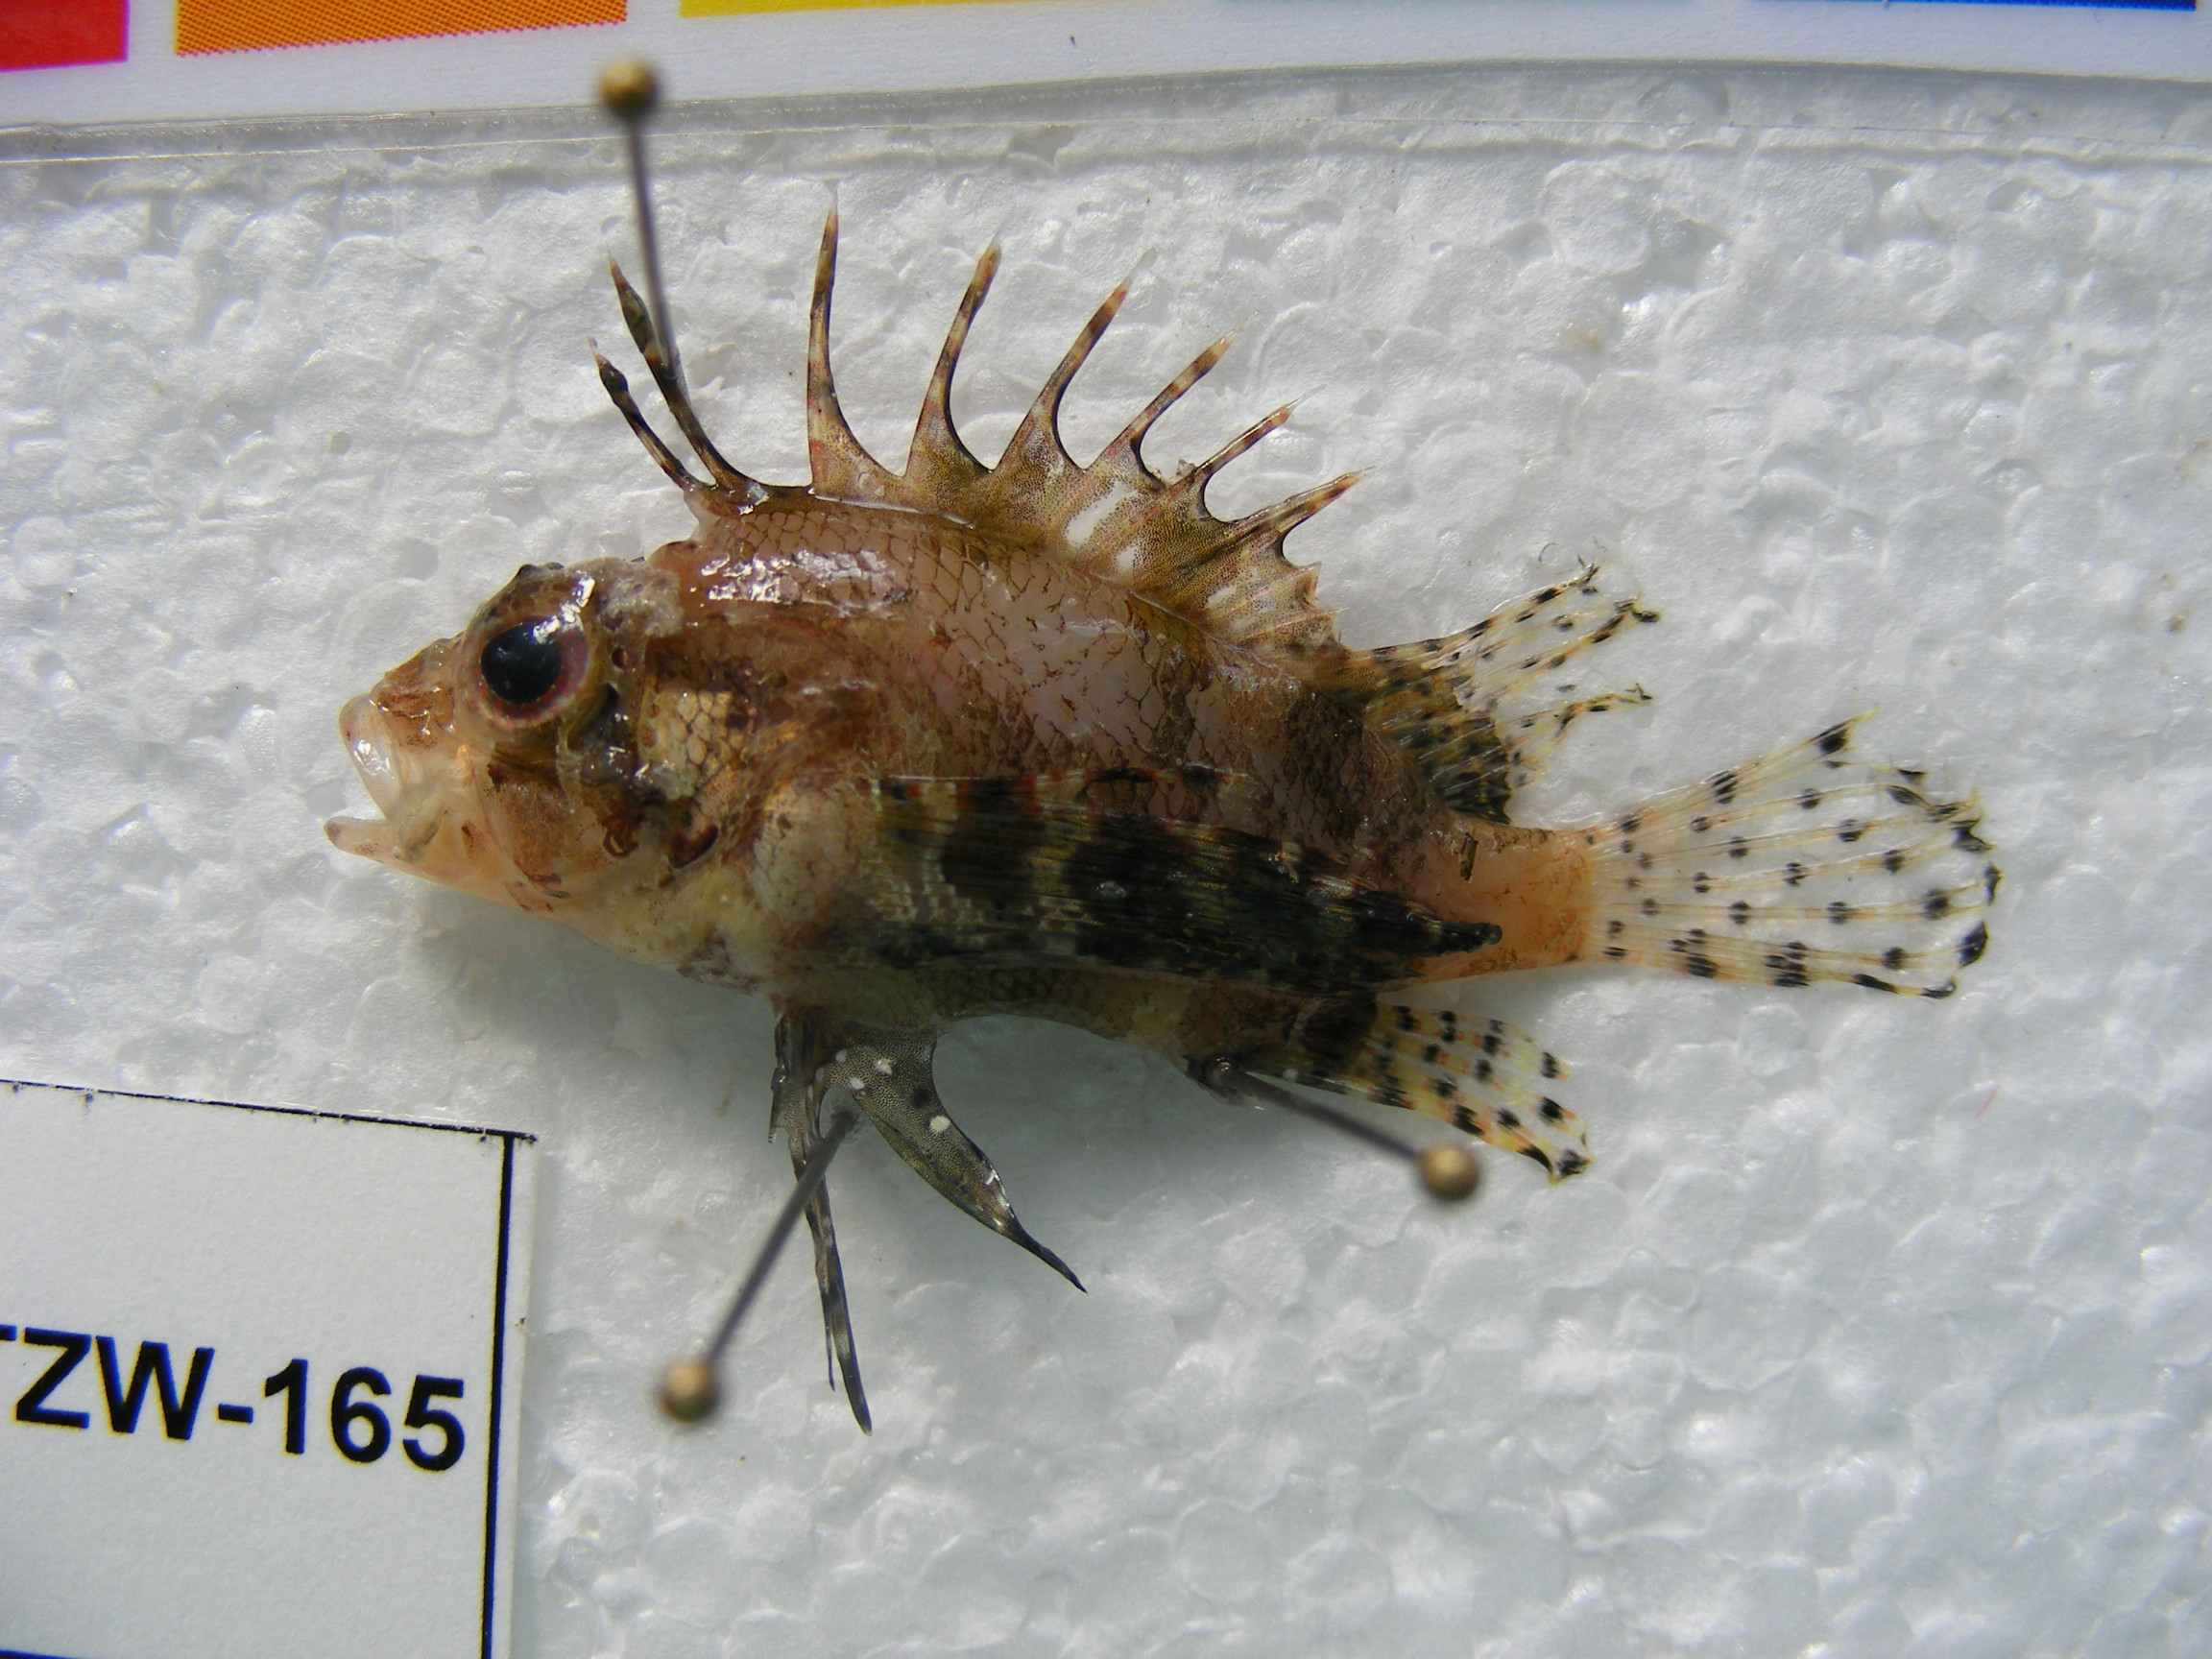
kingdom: Animalia
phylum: Chordata
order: Scorpaeniformes
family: Scorpaenidae
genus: Dendrochirus
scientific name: Dendrochirus hemprichi
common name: Red sea dwarf lionfish
